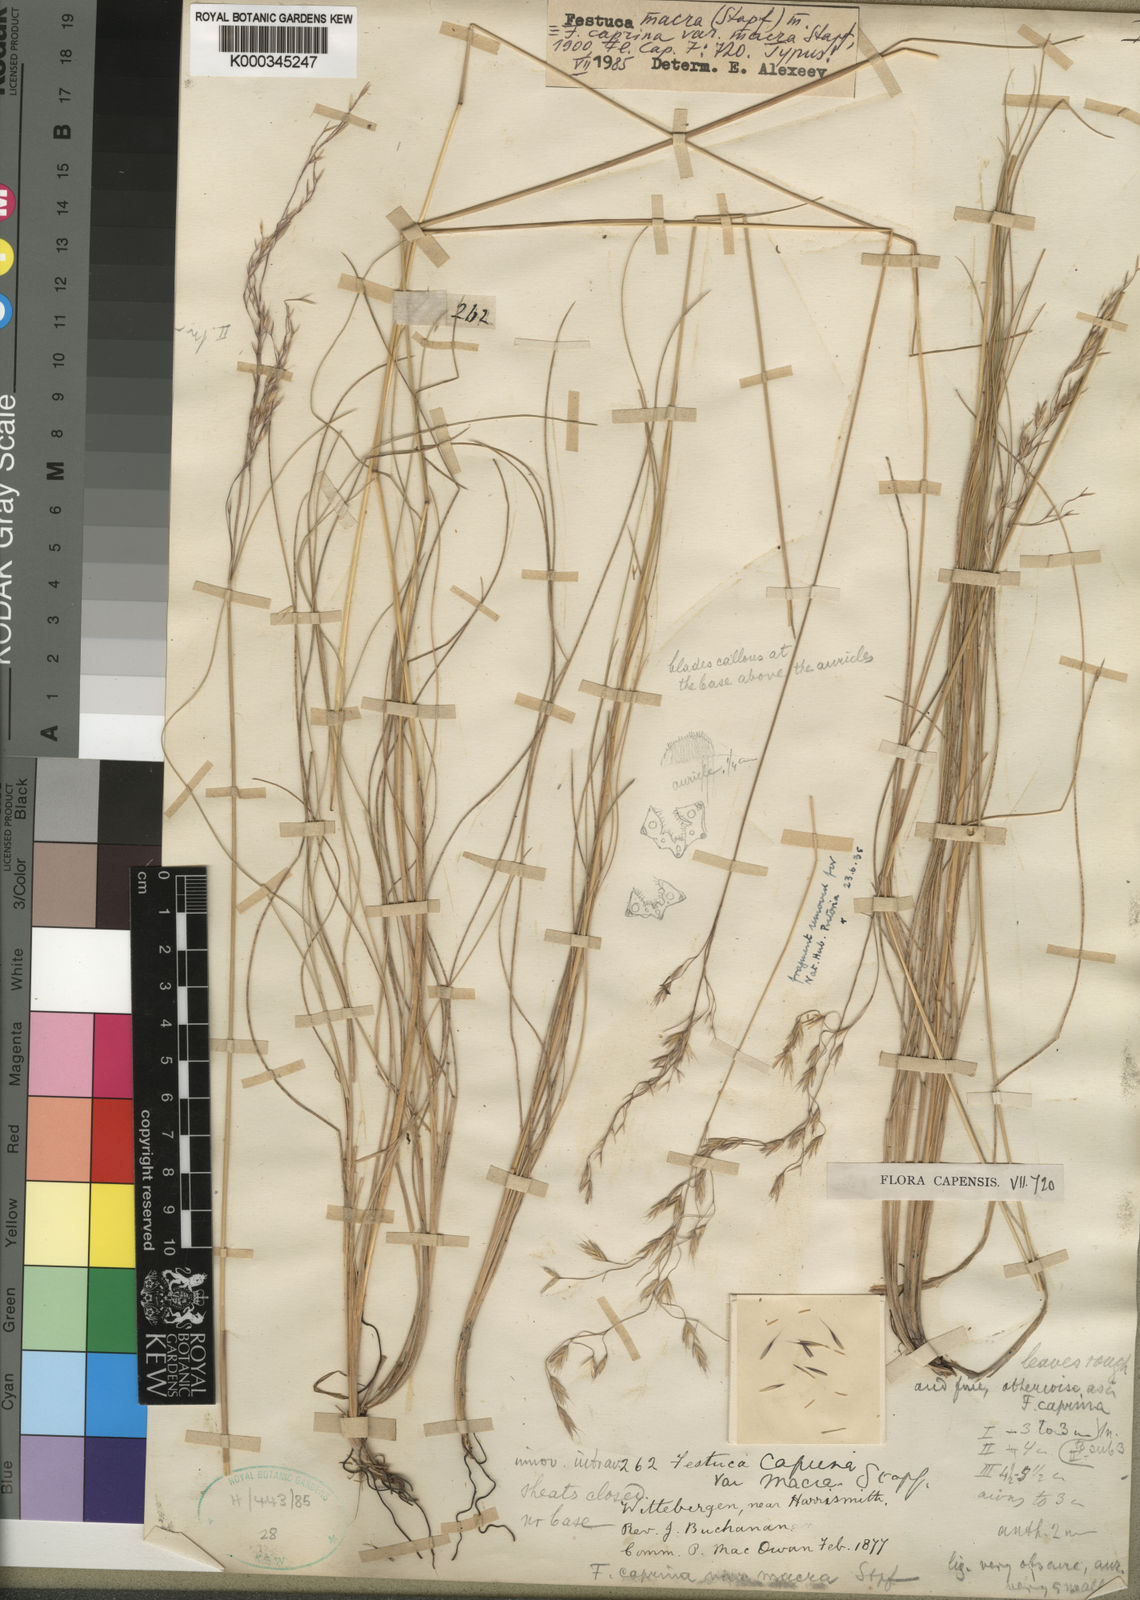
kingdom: Plantae
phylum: Tracheophyta
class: Liliopsida
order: Poales
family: Poaceae
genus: Festuca
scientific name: Festuca macra
